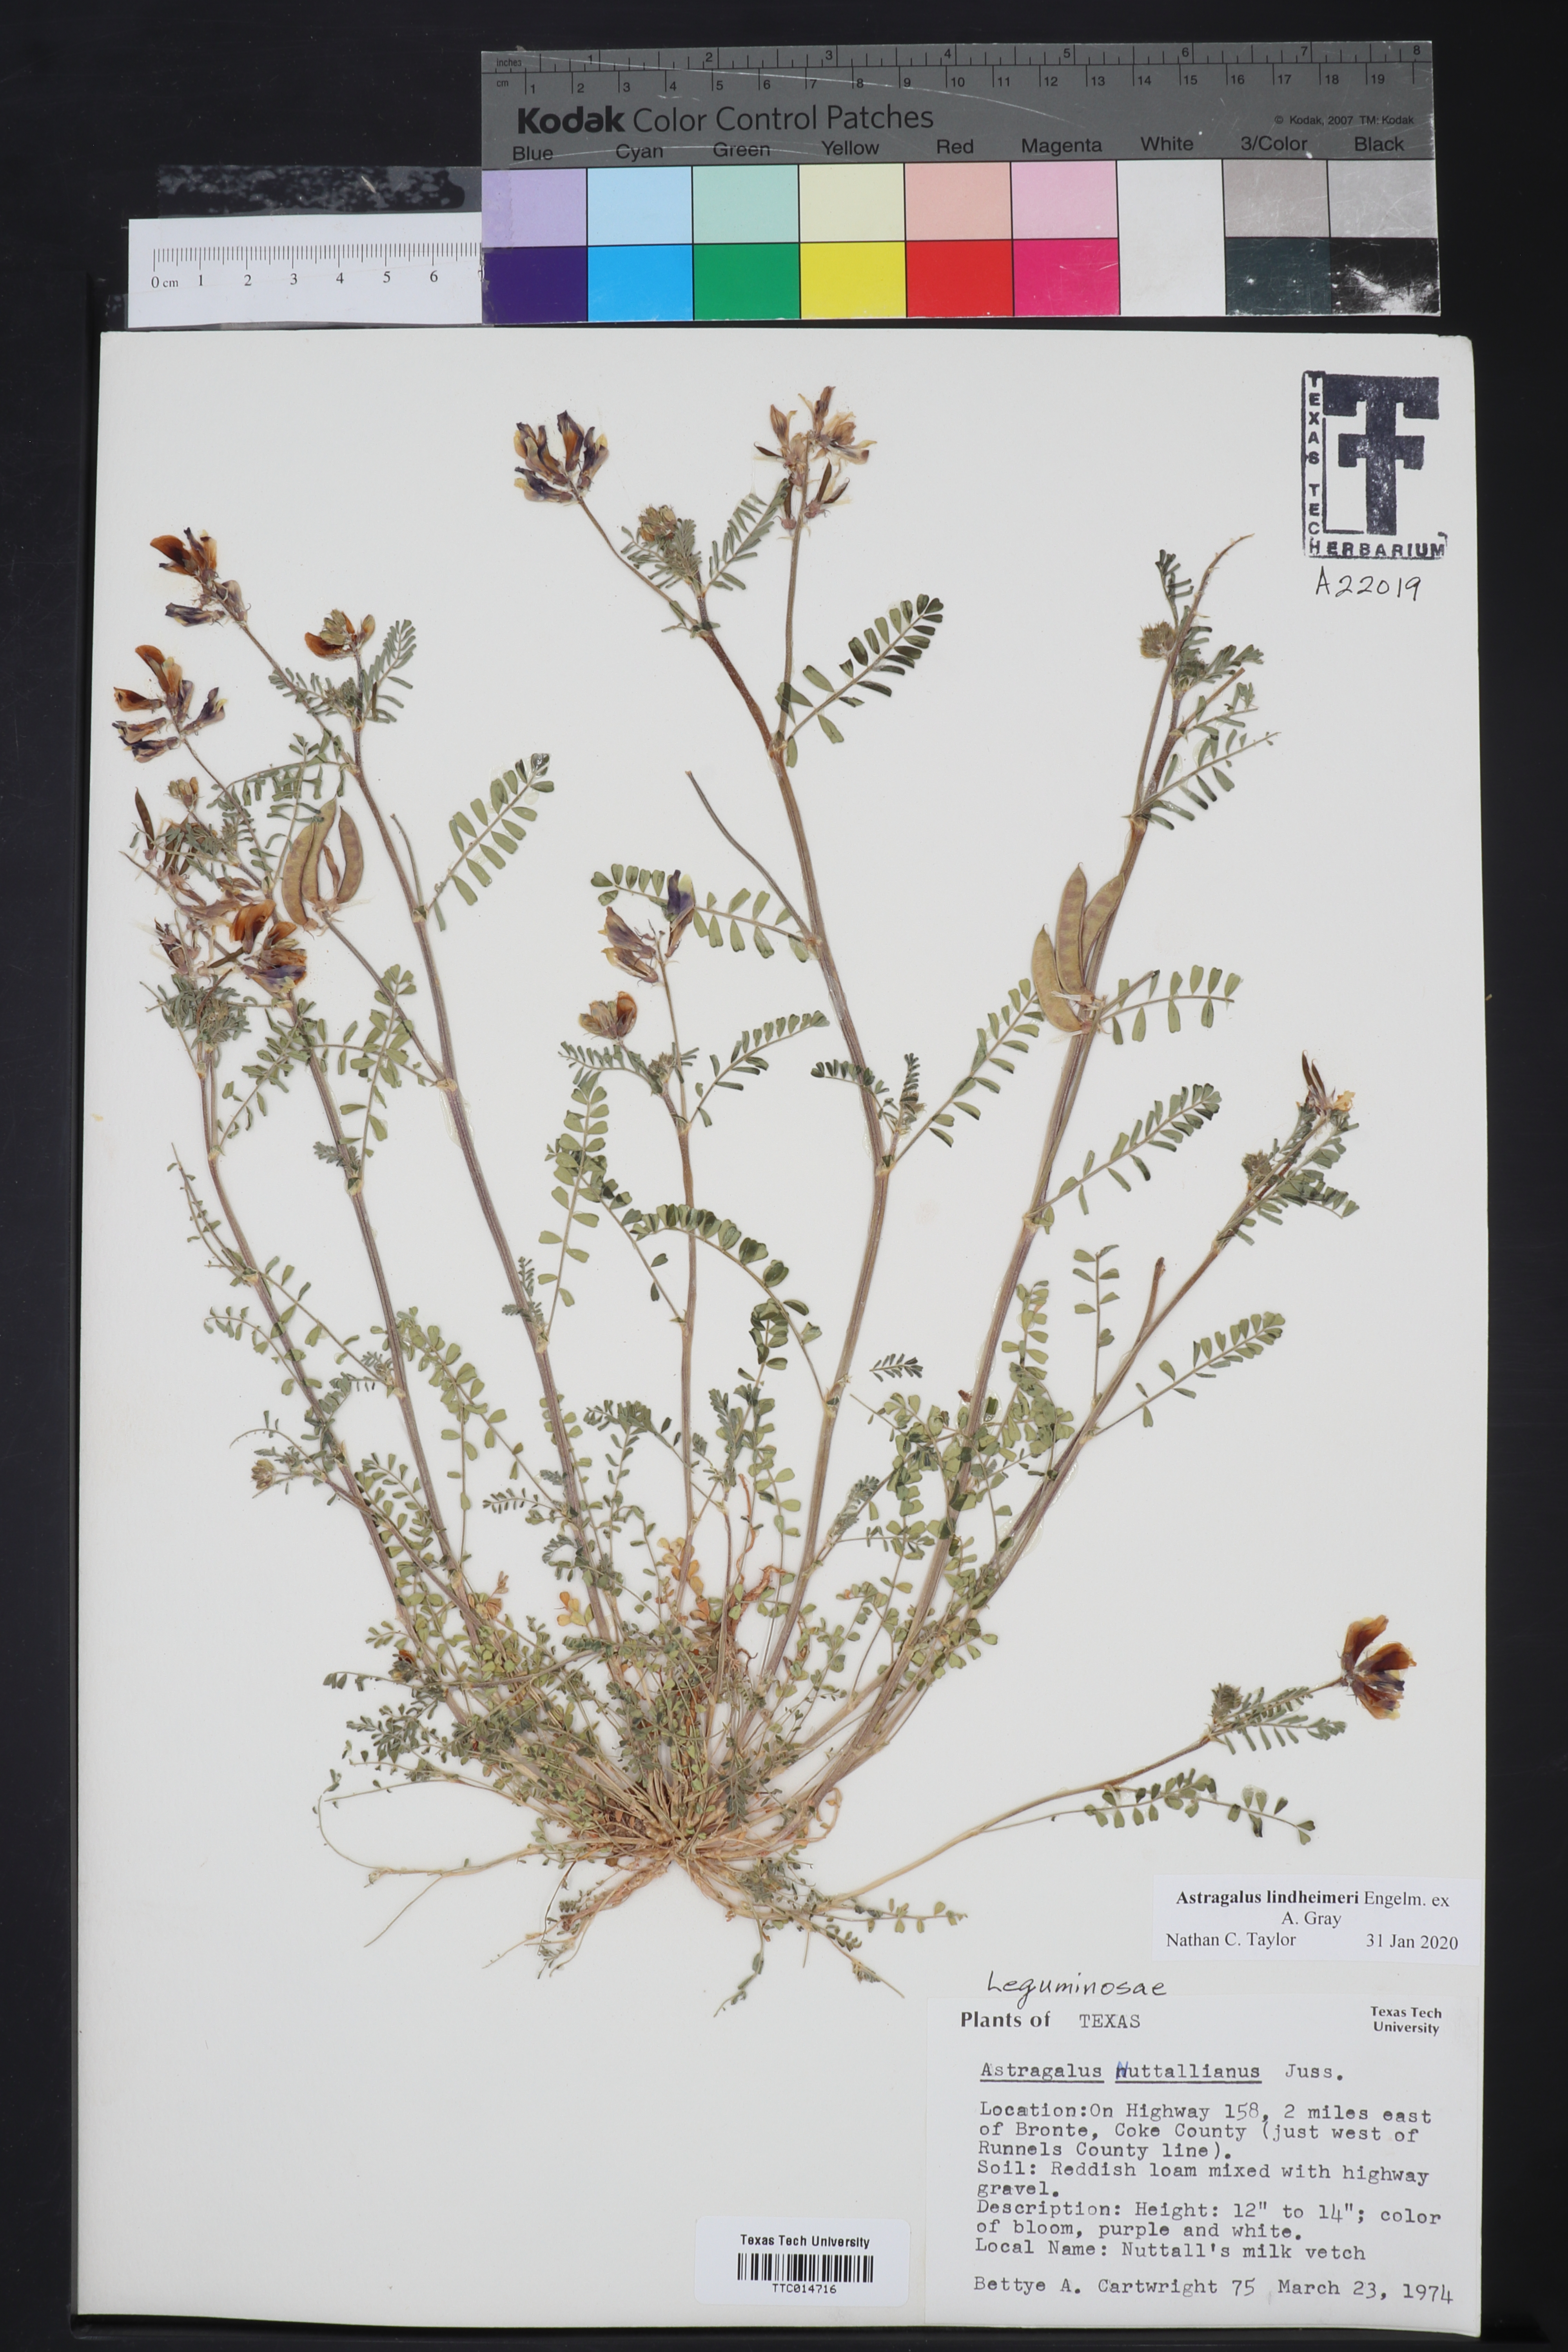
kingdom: Plantae
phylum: Tracheophyta
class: Magnoliopsida
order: Fabales
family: Fabaceae
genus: Astragalus
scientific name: Astragalus lindheimeri
